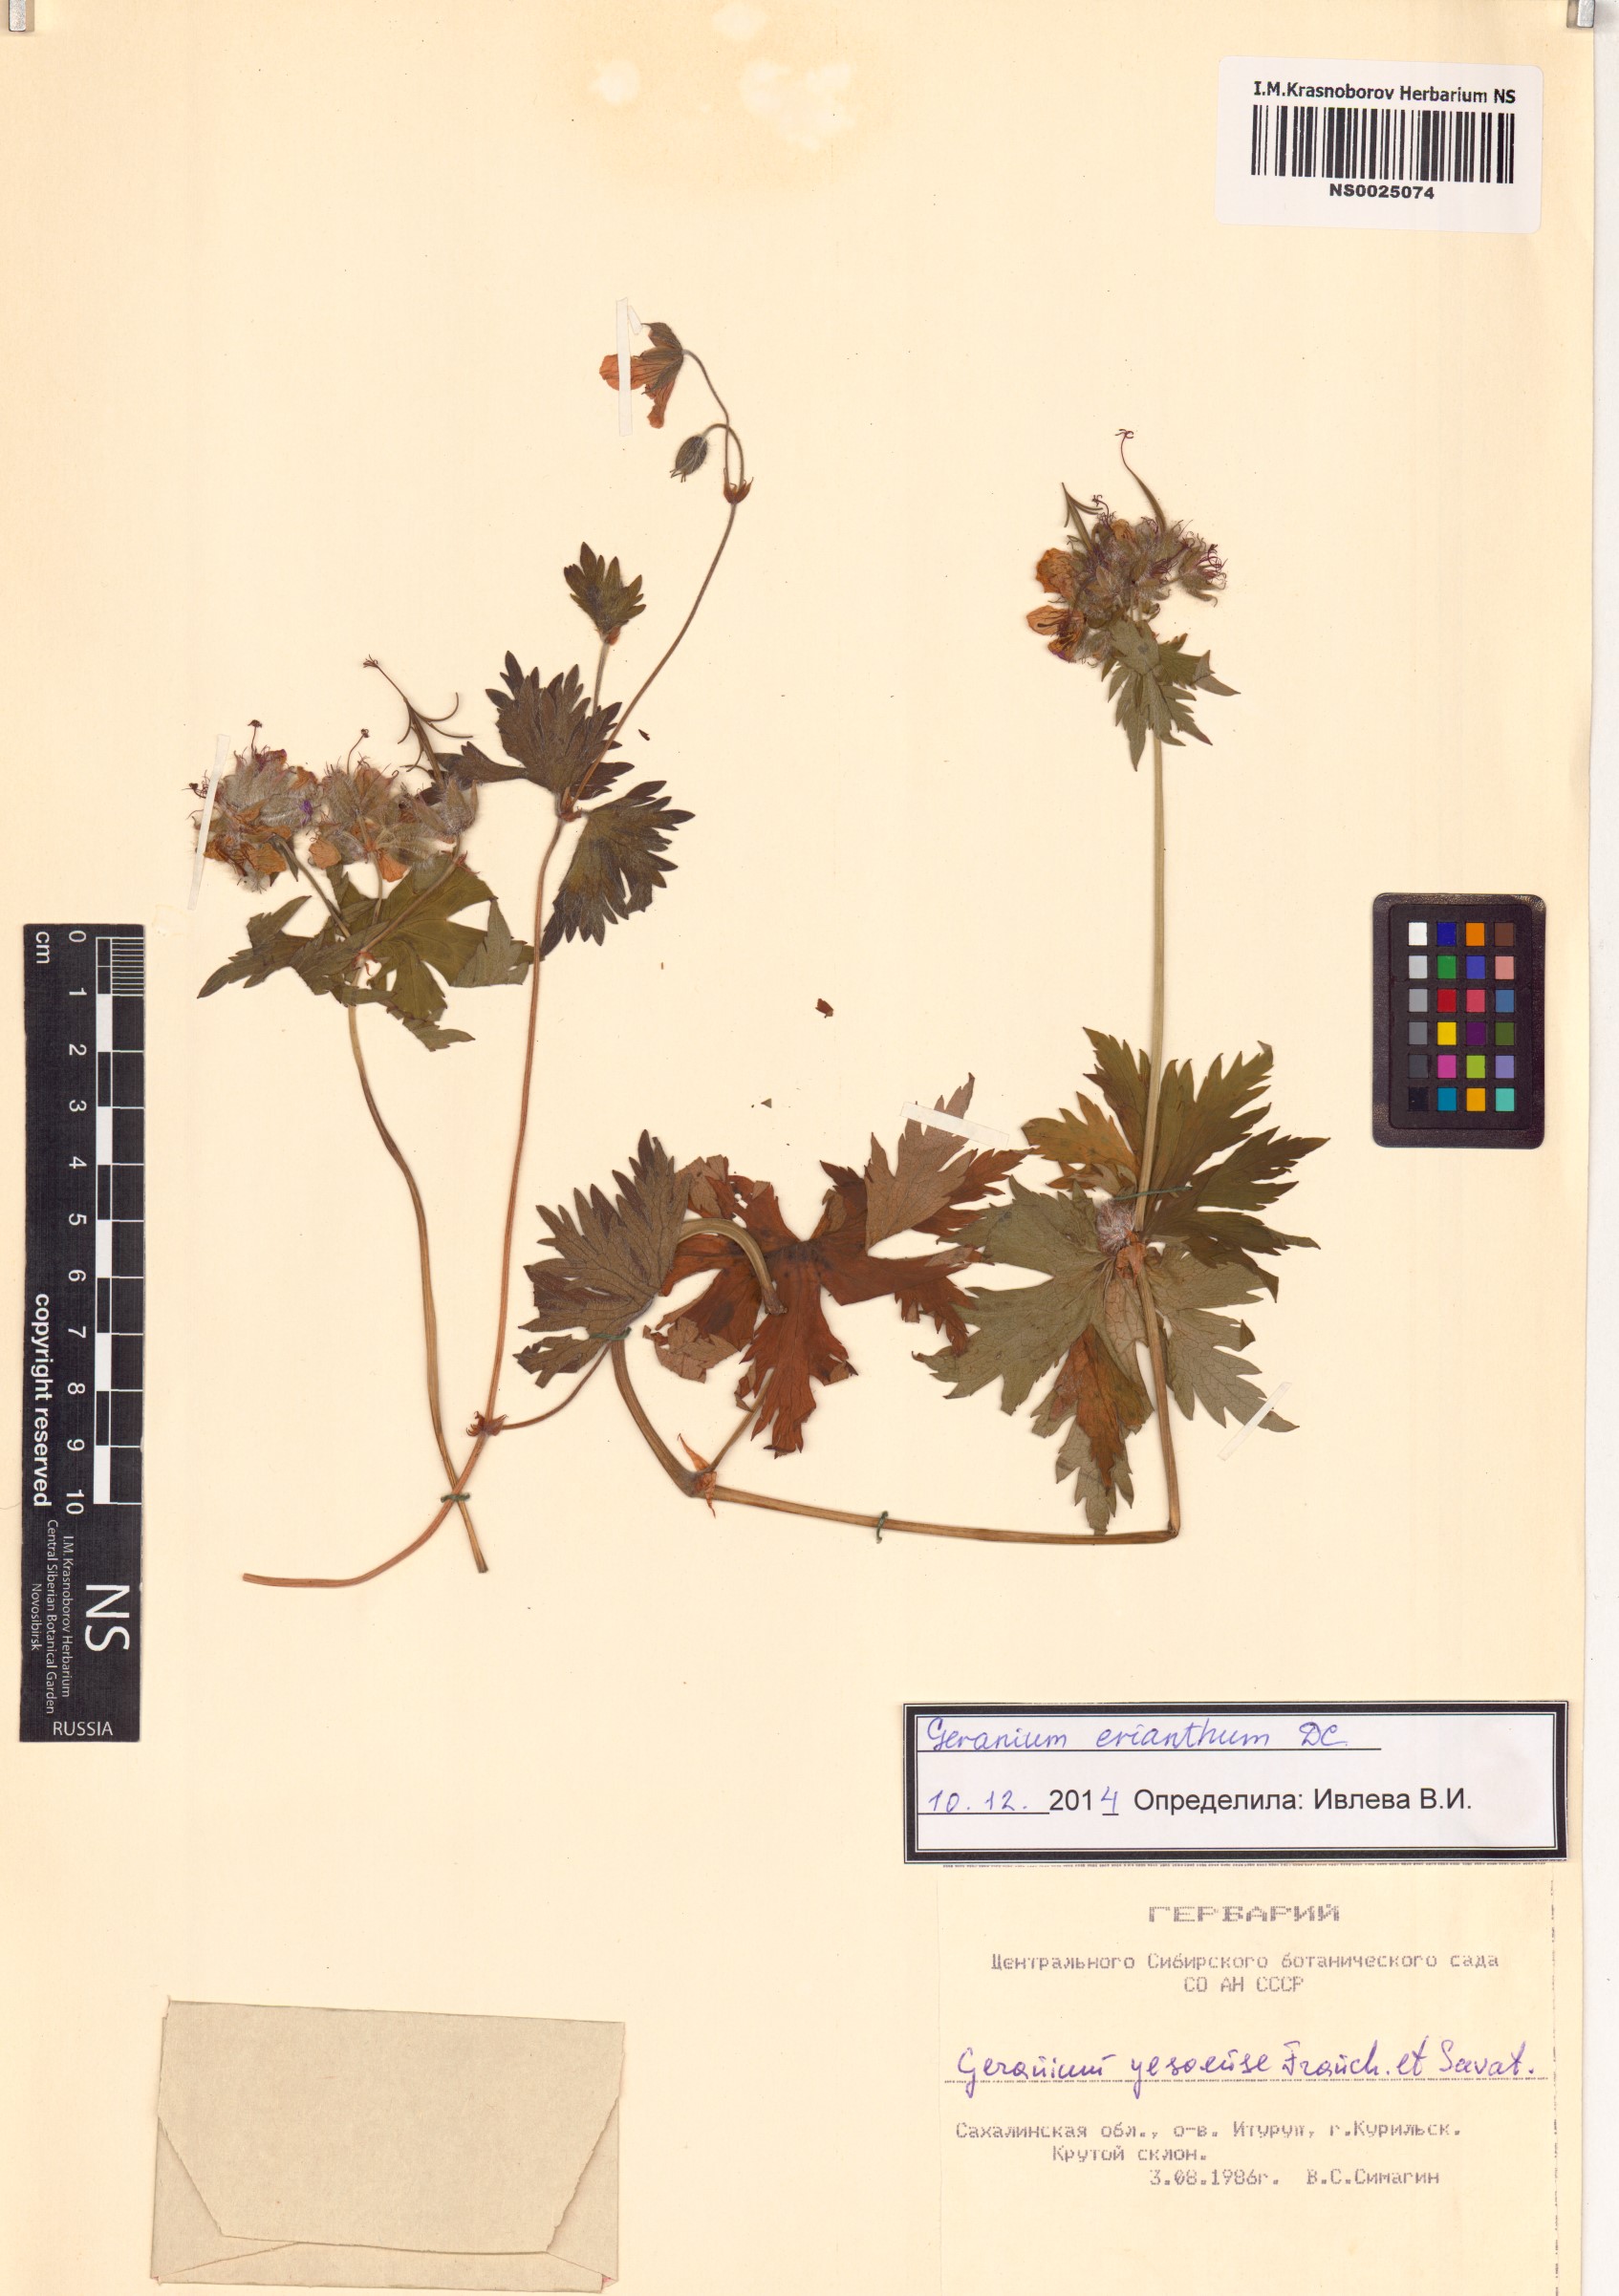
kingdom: Plantae
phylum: Tracheophyta
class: Magnoliopsida
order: Geraniales
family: Geraniaceae
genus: Geranium
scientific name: Geranium erianthum
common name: Northern crane's-bill
